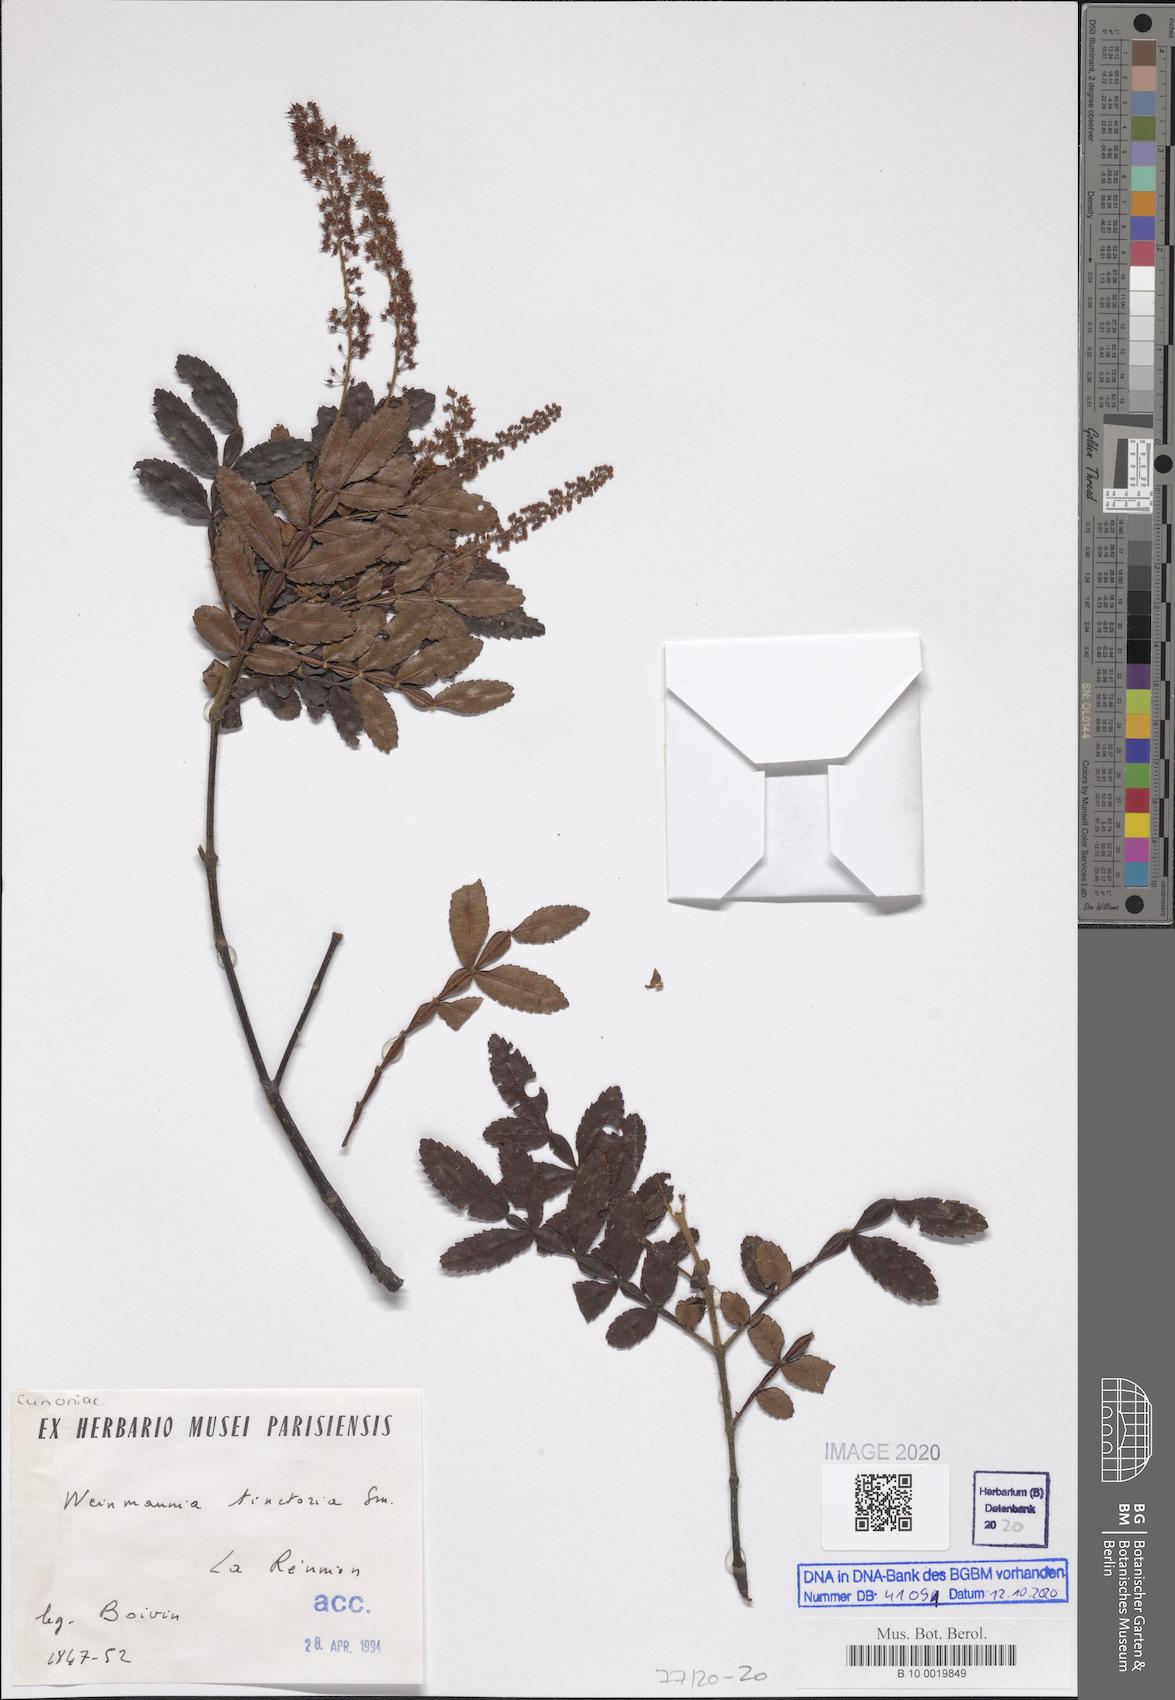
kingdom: Plantae
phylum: Tracheophyta
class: Magnoliopsida
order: Oxalidales
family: Cunoniaceae
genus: Weinmannia
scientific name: Weinmannia tinctoria
